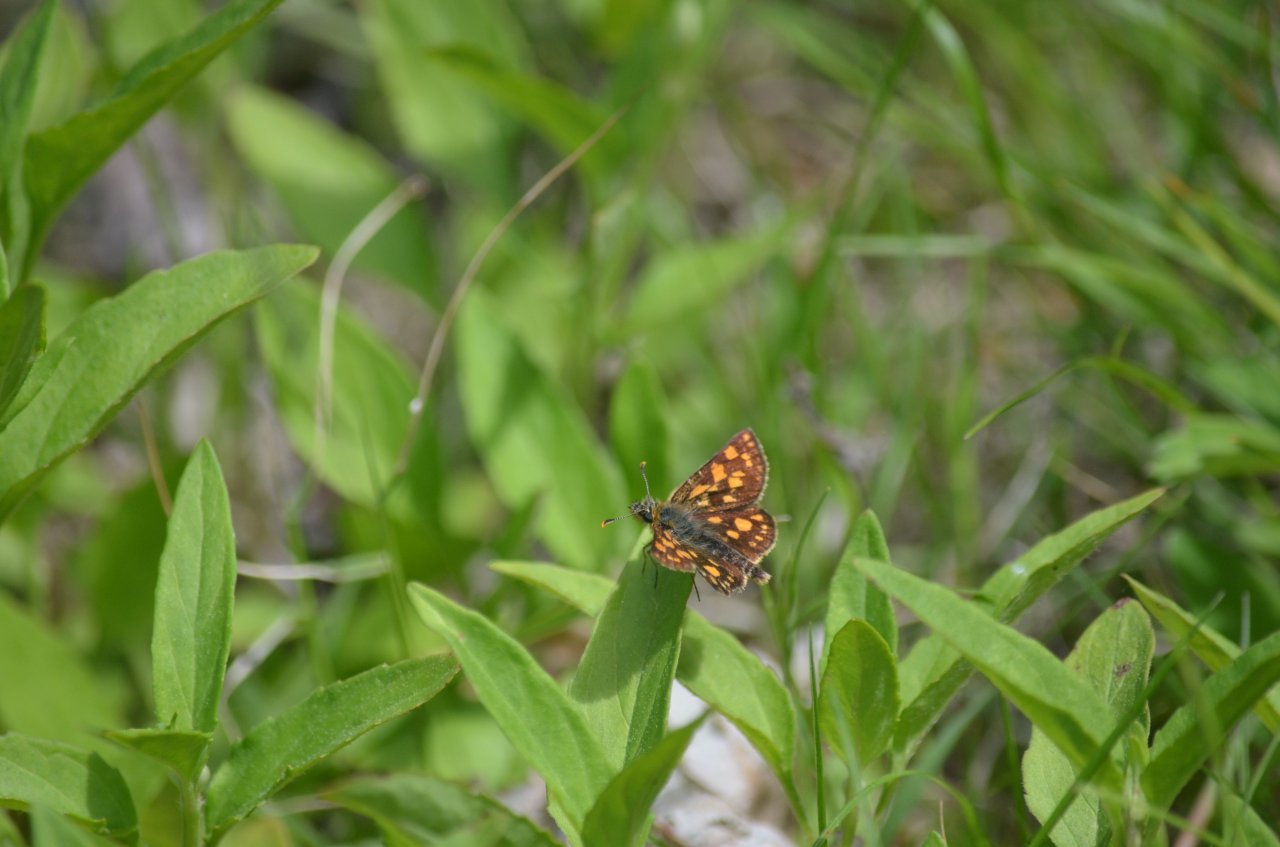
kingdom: Animalia
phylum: Arthropoda
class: Insecta
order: Lepidoptera
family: Hesperiidae
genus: Carterocephalus
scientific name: Carterocephalus palaemon
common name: Chequered Skipper
